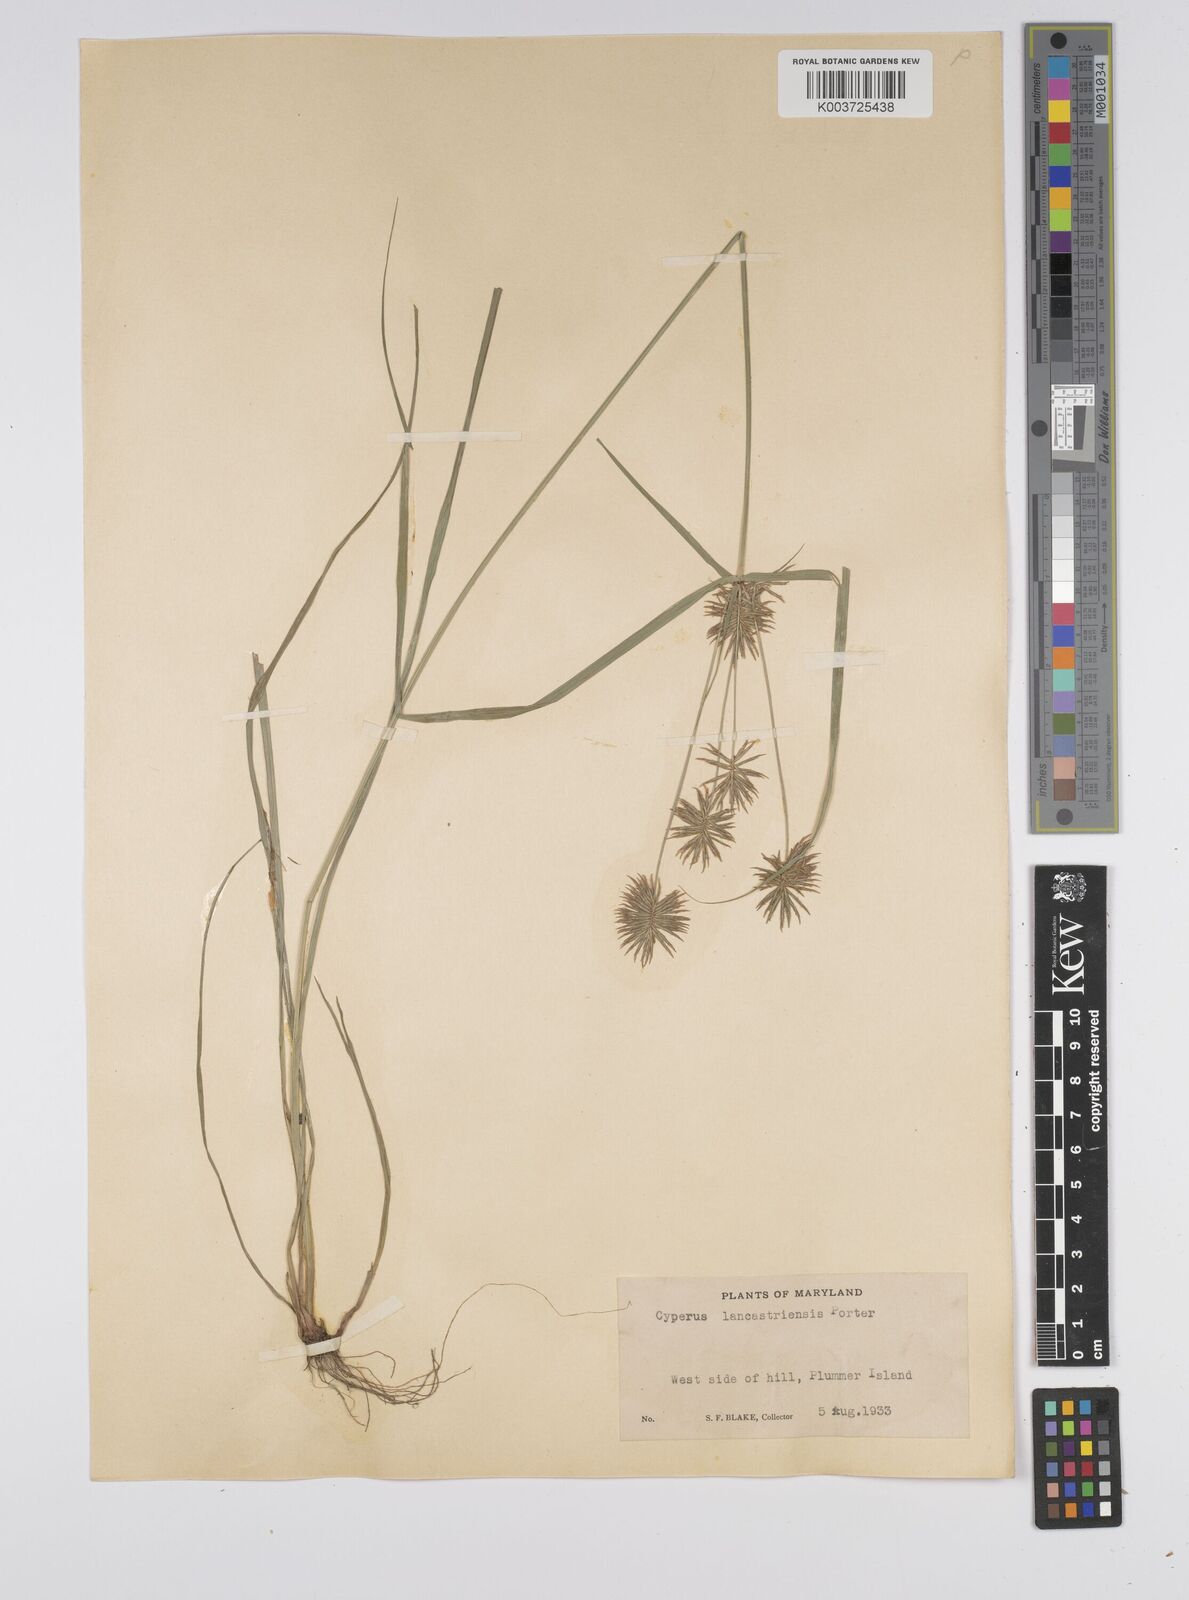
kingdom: Plantae
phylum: Tracheophyta
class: Liliopsida
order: Poales
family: Cyperaceae
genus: Cyperus
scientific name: Cyperus lancastriensis
